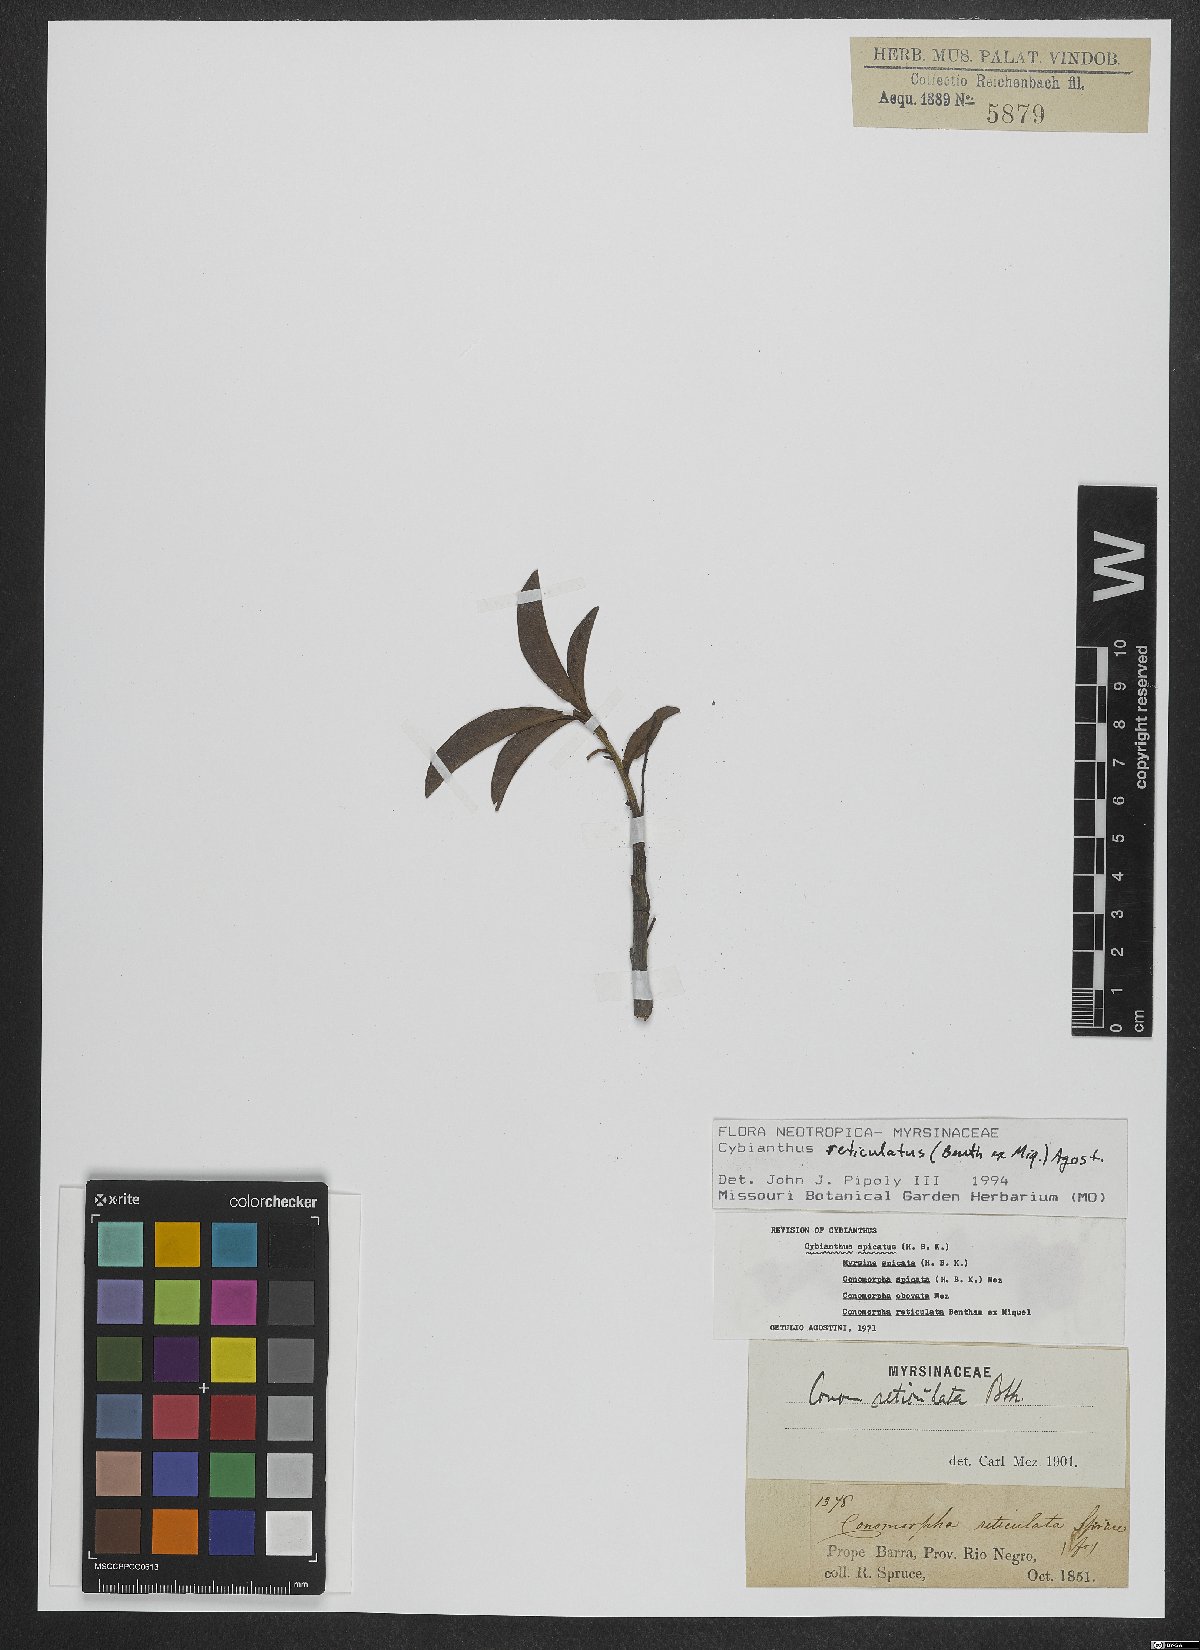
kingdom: Plantae
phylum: Tracheophyta
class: Magnoliopsida
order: Ericales
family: Primulaceae
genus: Cybianthus
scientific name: Cybianthus reticulatus
